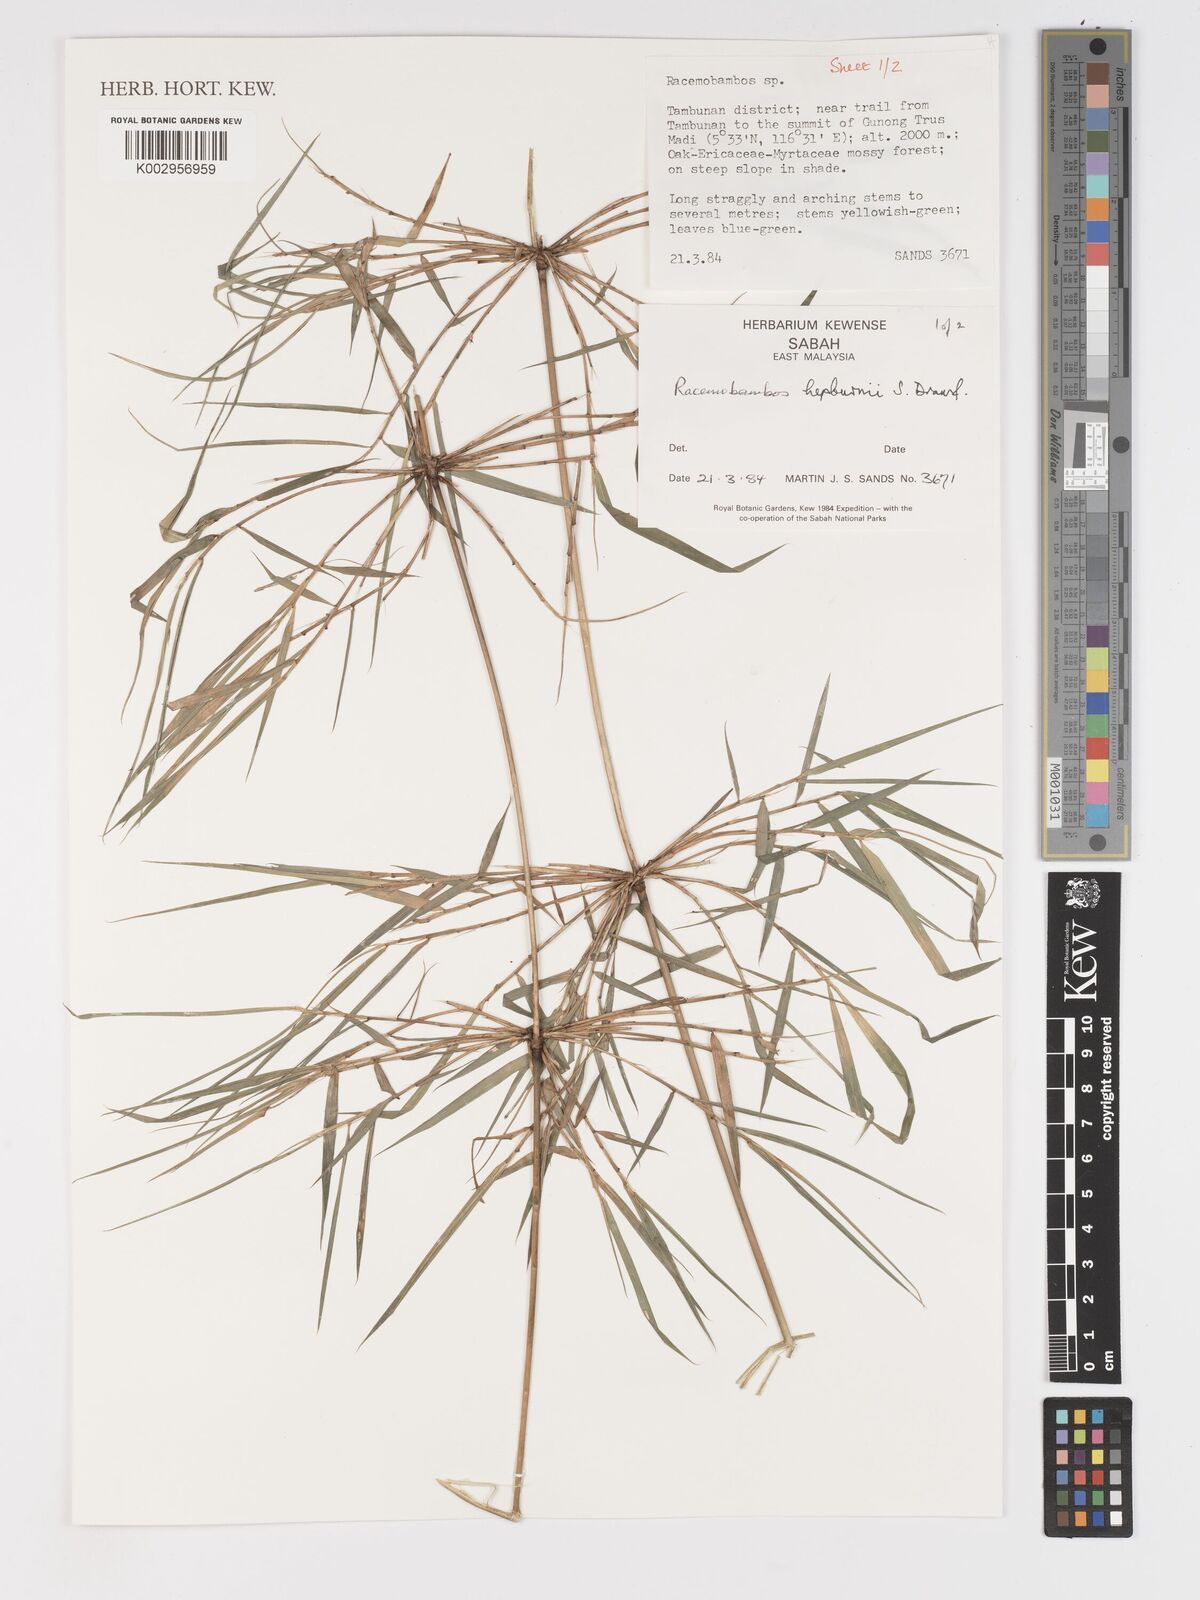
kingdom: Plantae
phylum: Tracheophyta
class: Liliopsida
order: Poales
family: Poaceae
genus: Racemobambos
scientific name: Racemobambos hepburnii
